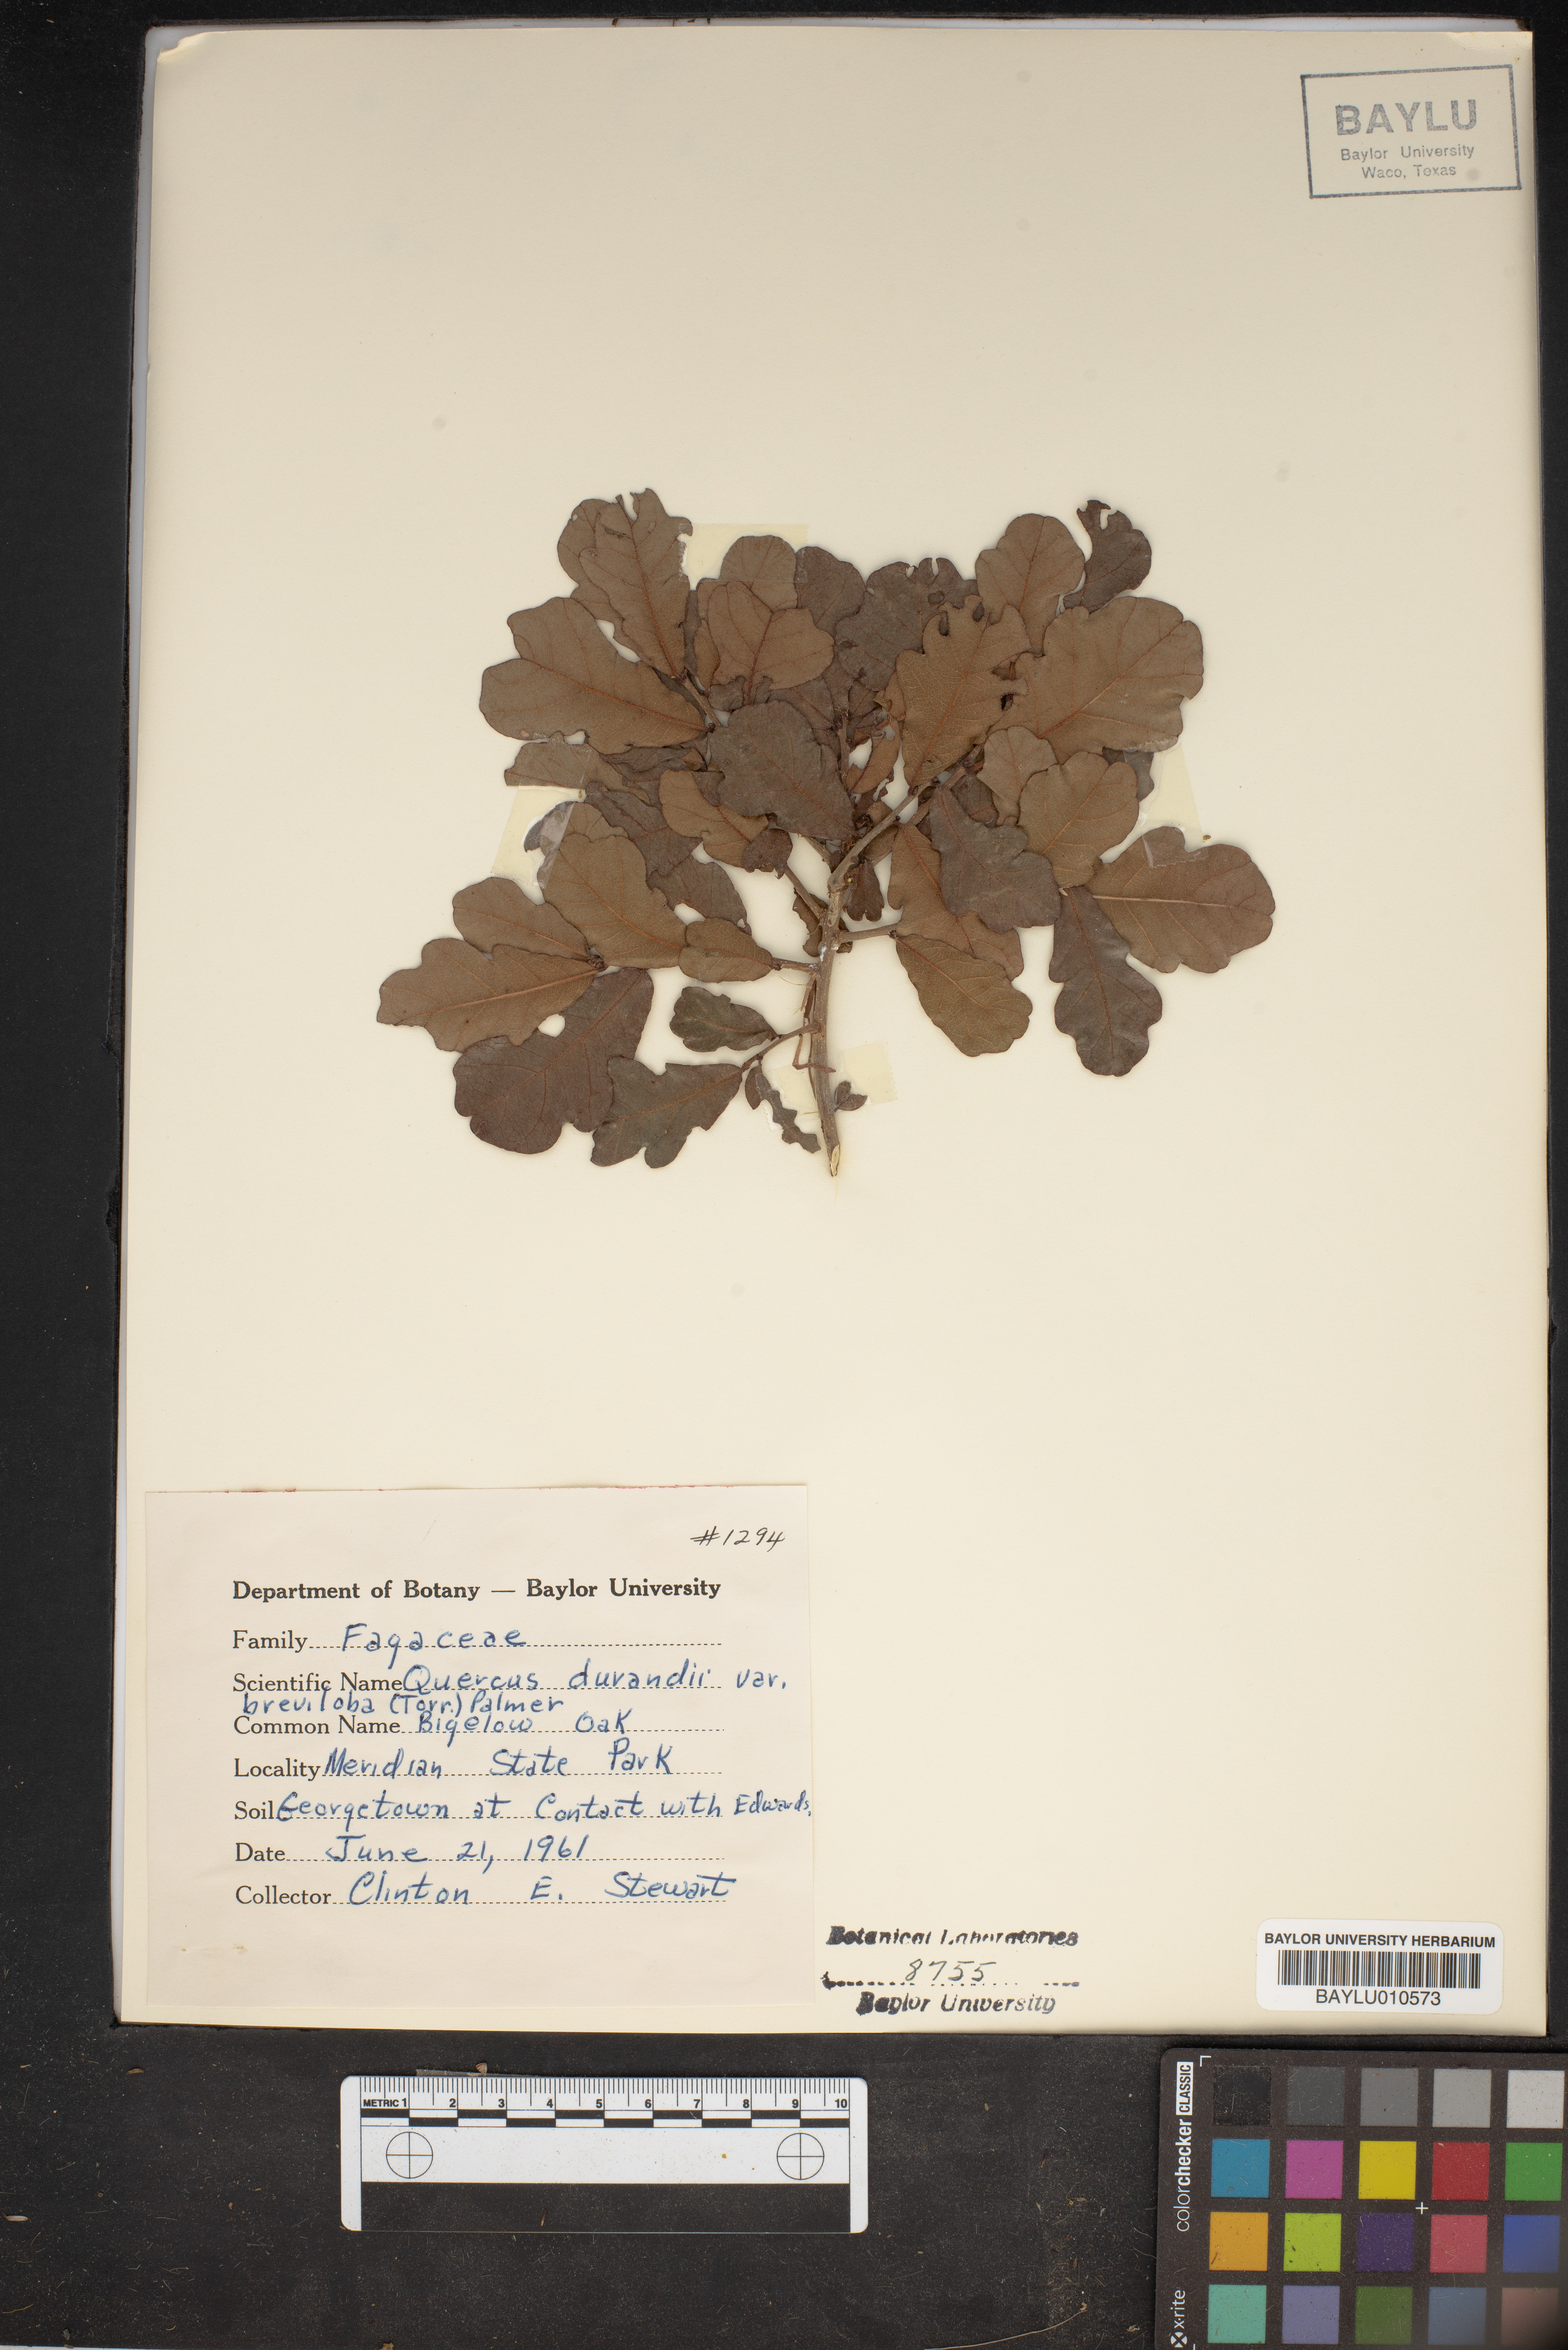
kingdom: Plantae
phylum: Tracheophyta
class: Magnoliopsida
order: Fagales
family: Fagaceae
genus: Quercus
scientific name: Quercus sinuata
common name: Durand oak
